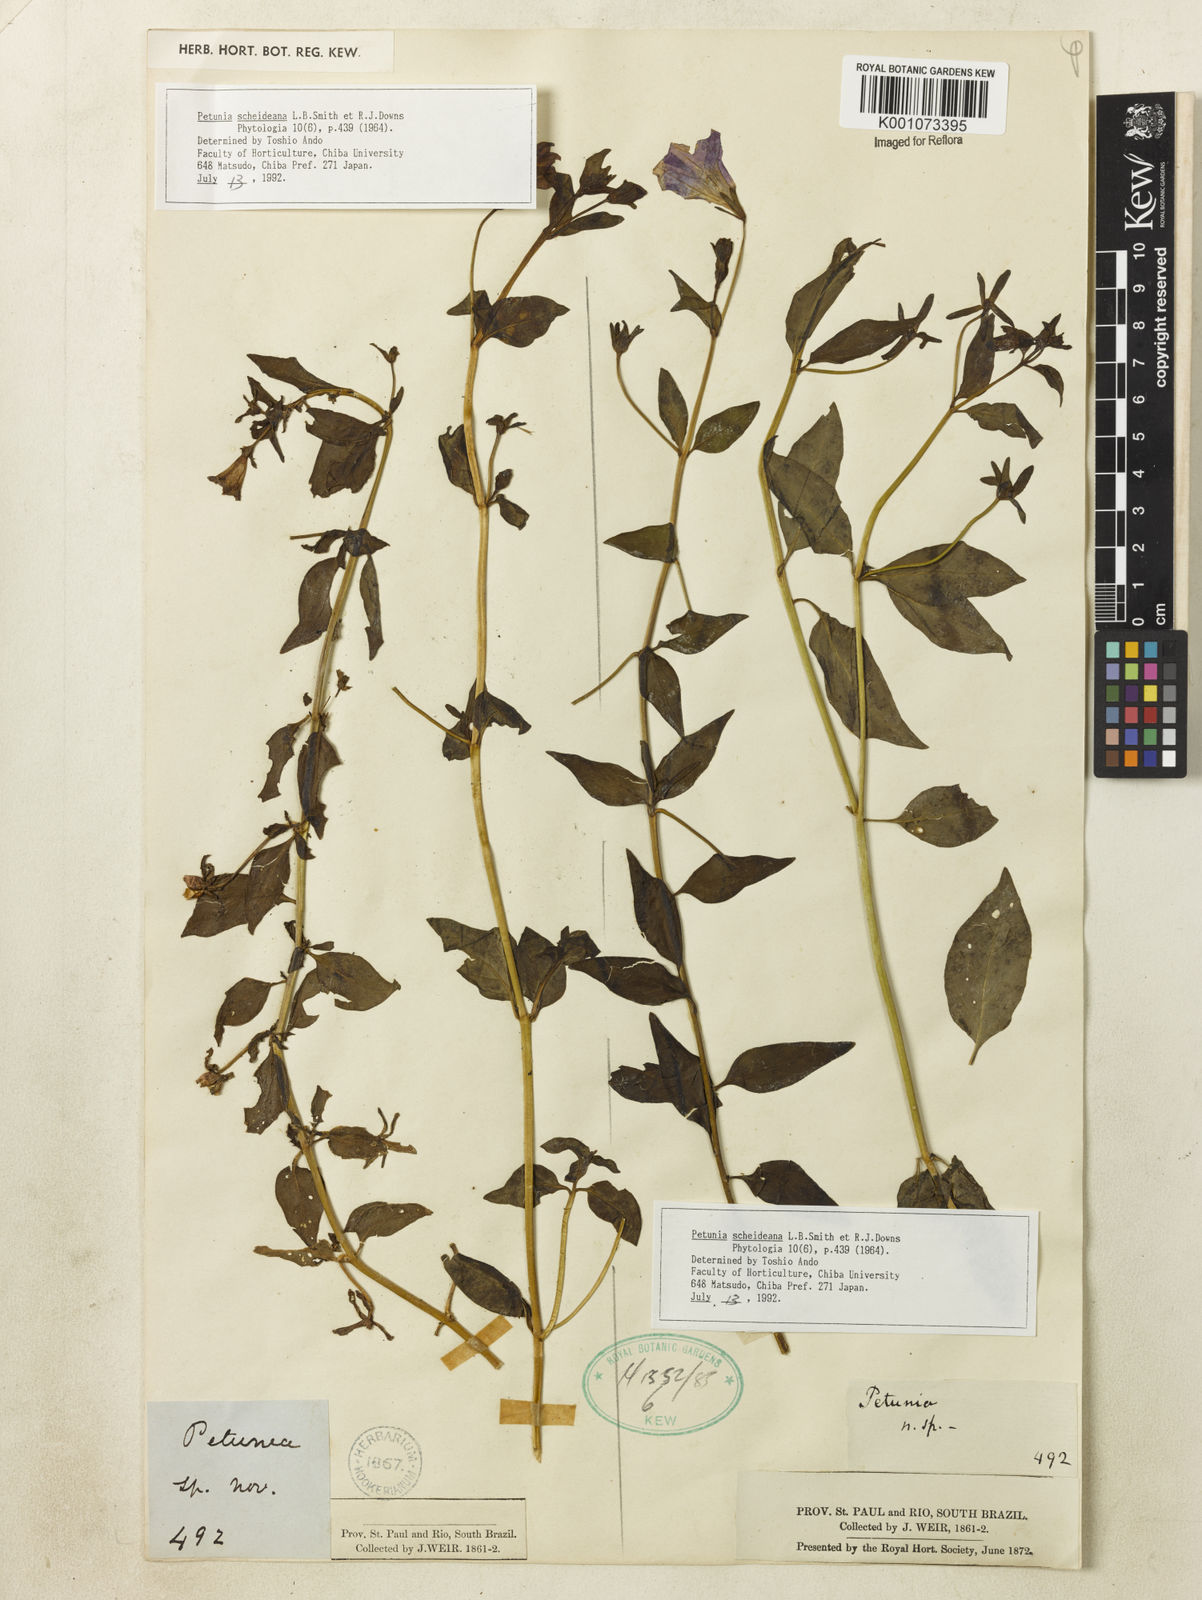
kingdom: Plantae
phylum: Tracheophyta
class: Magnoliopsida
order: Solanales
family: Solanaceae
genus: Petunia
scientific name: Petunia scheideana
